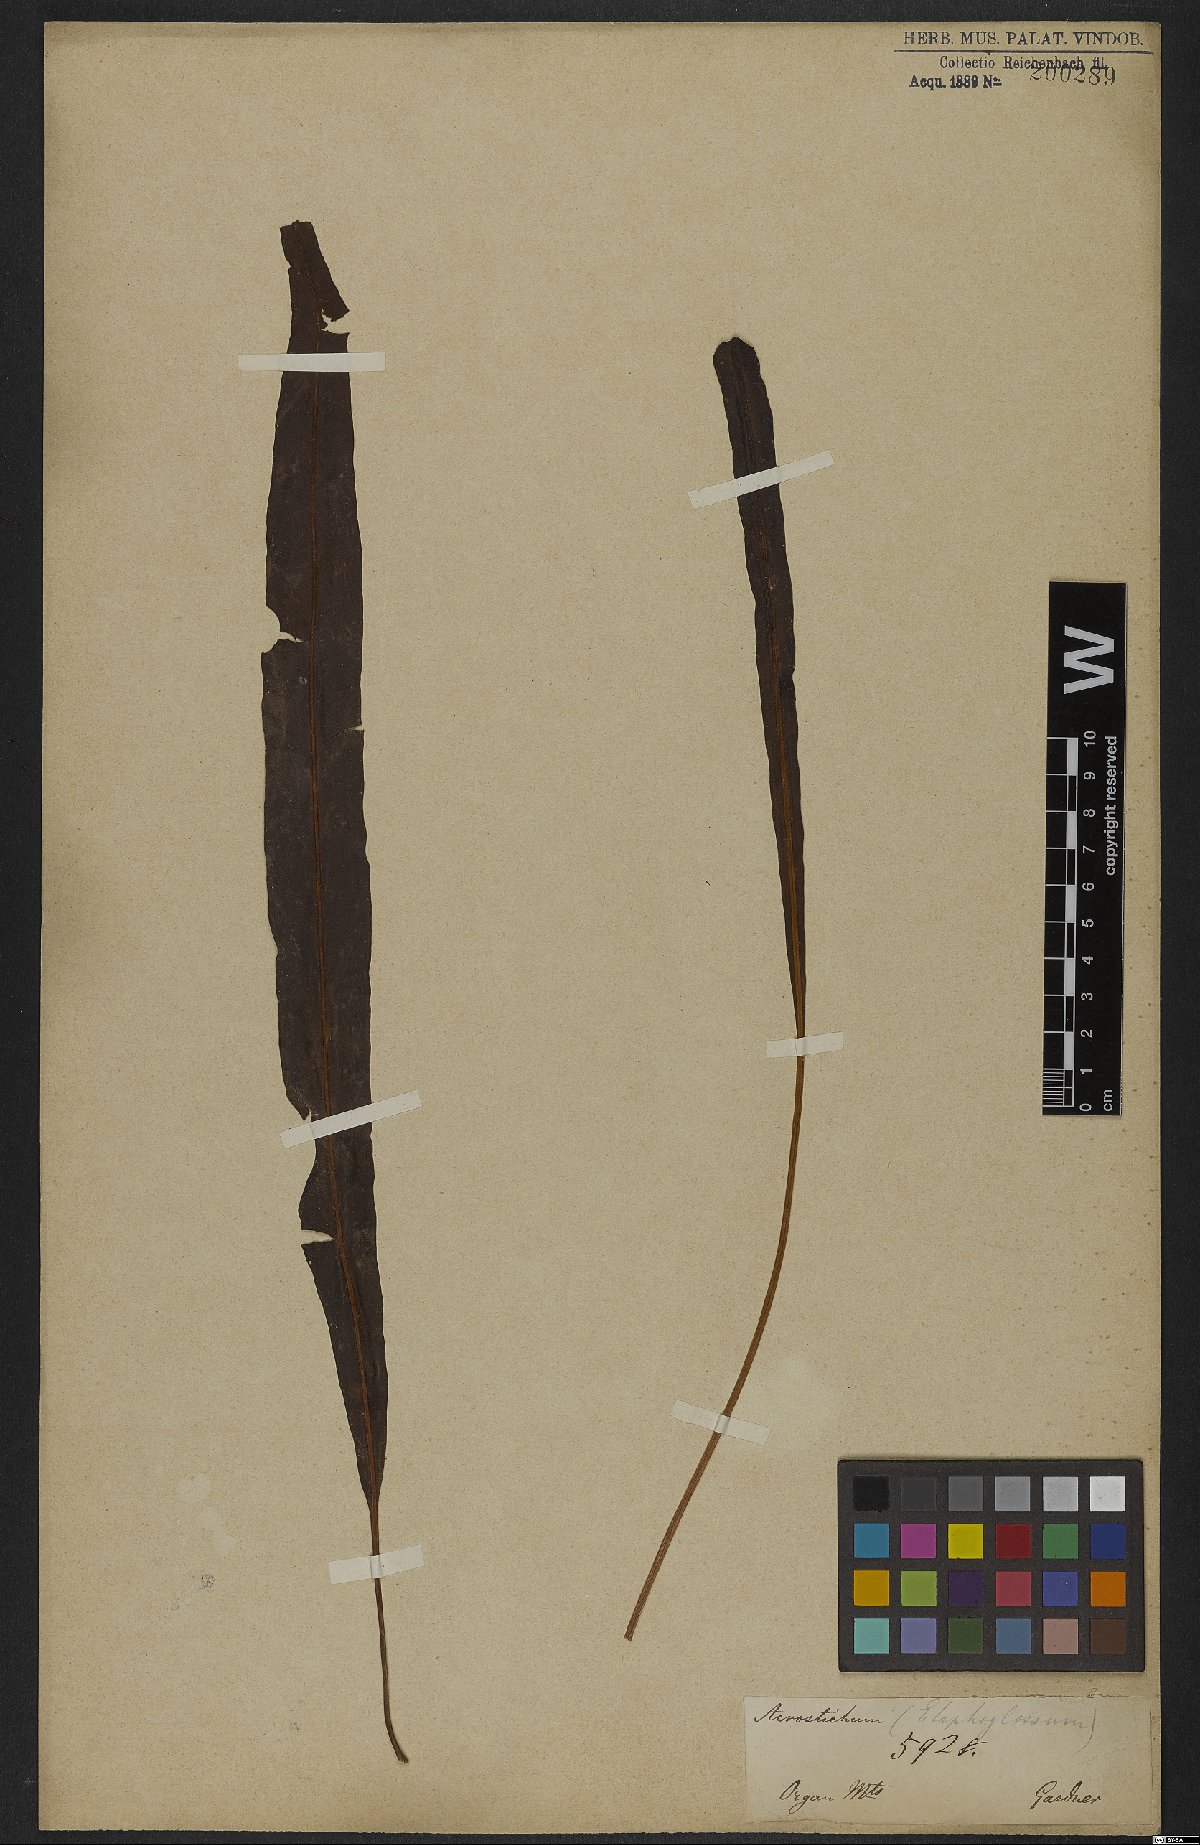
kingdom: Plantae
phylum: Tracheophyta
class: Polypodiopsida
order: Polypodiales
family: Dryopteridaceae
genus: Elaphoglossum
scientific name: Elaphoglossum
